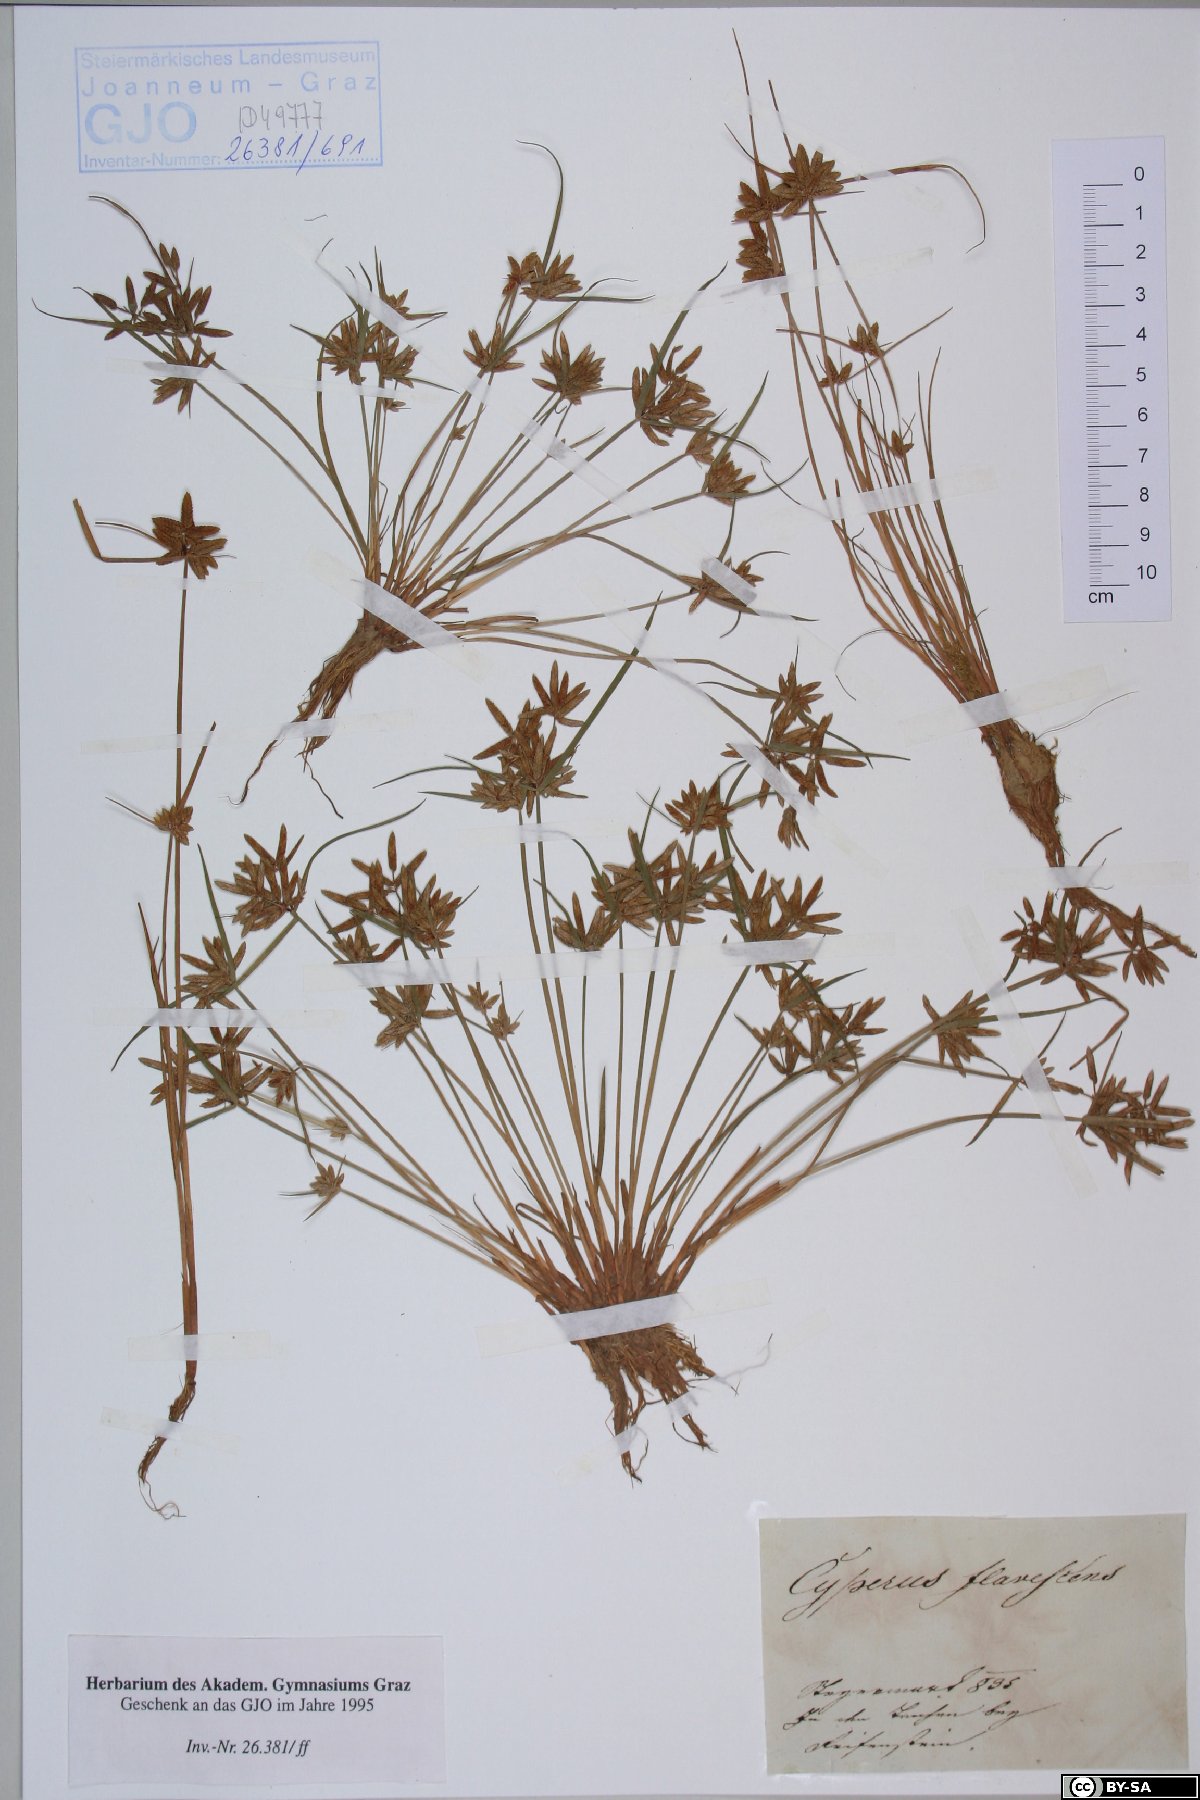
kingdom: Plantae
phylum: Tracheophyta
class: Liliopsida
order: Poales
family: Cyperaceae
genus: Cyperus
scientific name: Cyperus flavescens
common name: Yellow galingale
